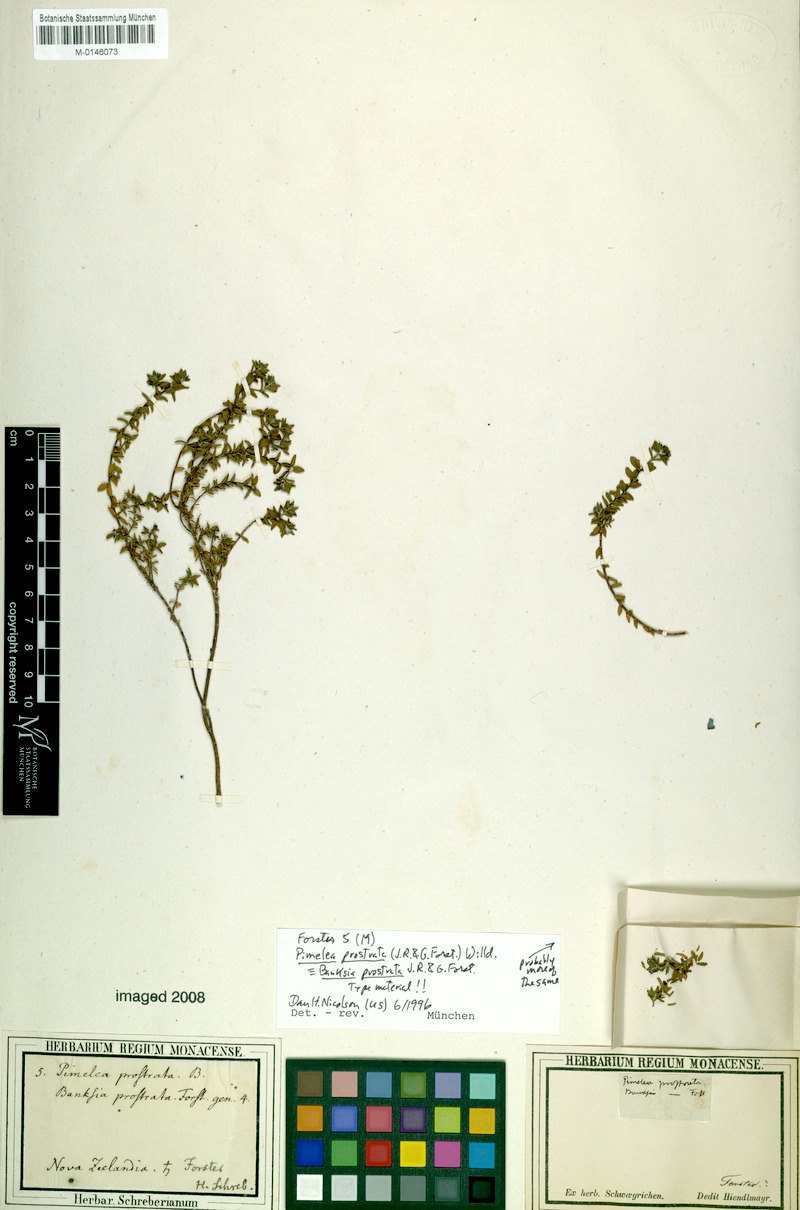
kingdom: Plantae
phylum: Tracheophyta
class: Magnoliopsida
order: Malvales
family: Thymelaeaceae
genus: Pimelea
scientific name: Pimelea prostrata
